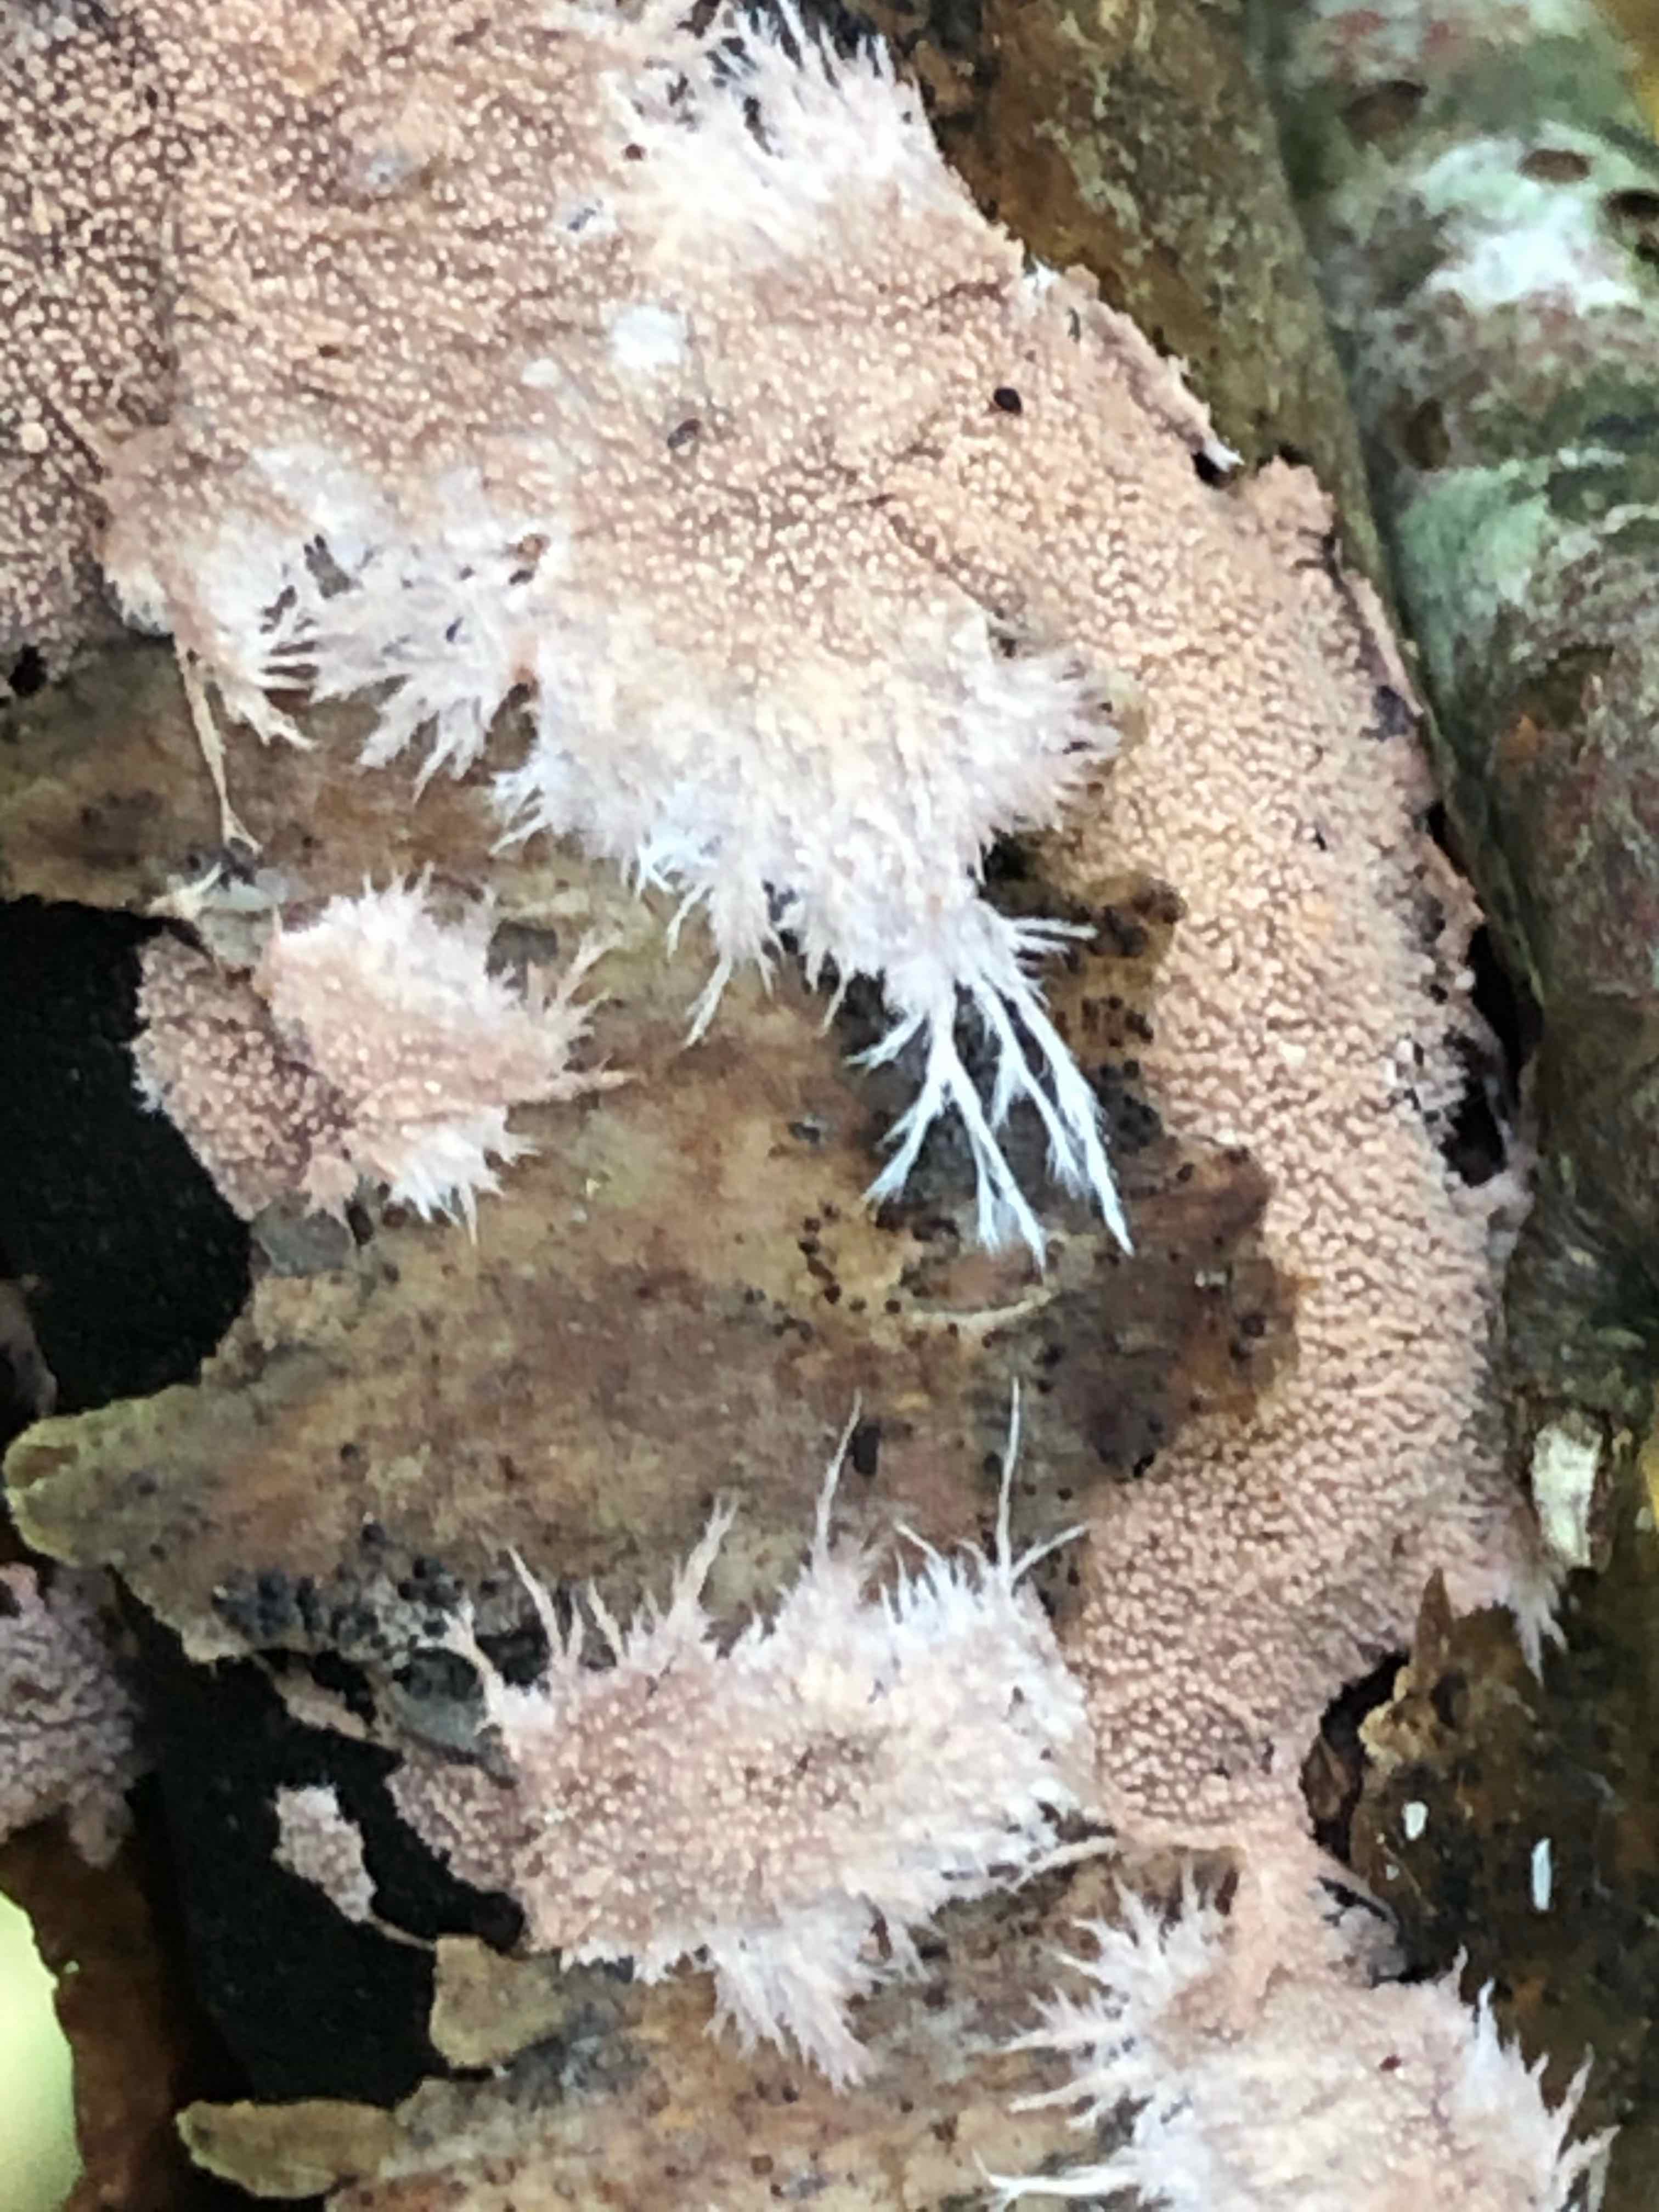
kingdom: Fungi
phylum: Basidiomycota
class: Agaricomycetes
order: Polyporales
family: Steccherinaceae
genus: Steccherinum
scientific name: Steccherinum fimbriatum
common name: trådet skønpig
